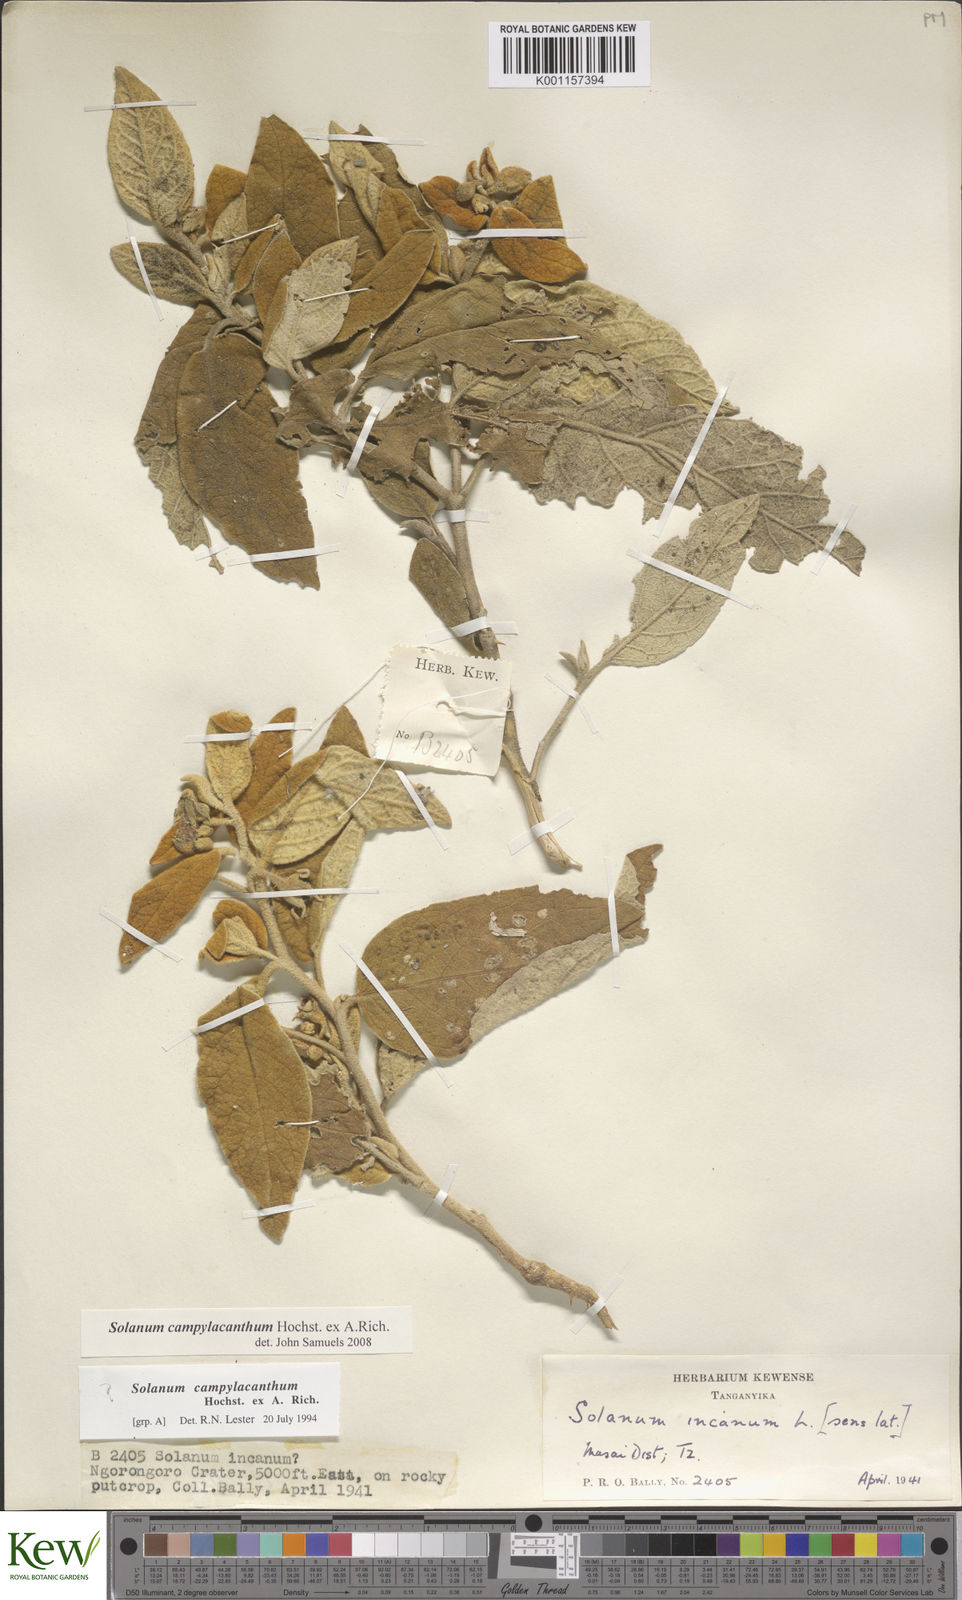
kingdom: Plantae
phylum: Tracheophyta
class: Magnoliopsida
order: Solanales
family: Solanaceae
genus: Solanum
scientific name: Solanum campylacanthum
